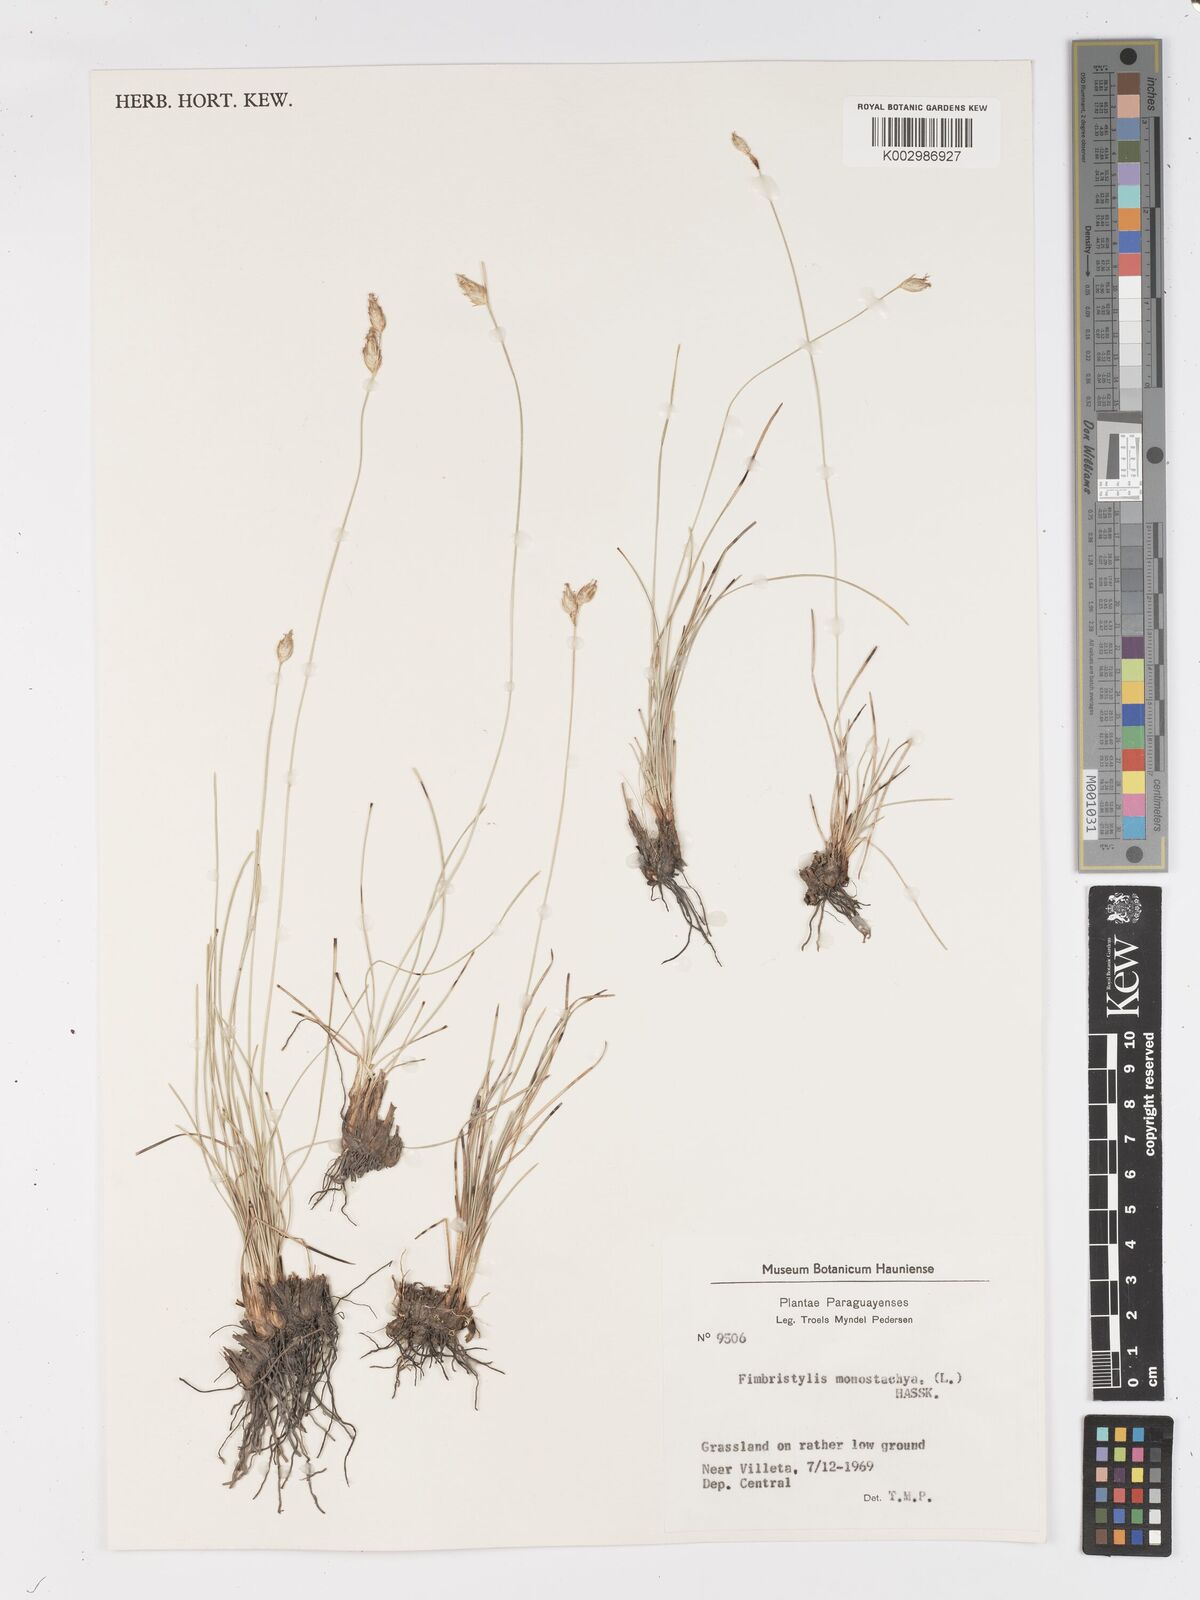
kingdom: Plantae
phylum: Tracheophyta
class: Liliopsida
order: Poales
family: Cyperaceae
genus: Abildgaardia
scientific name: Abildgaardia ovata
